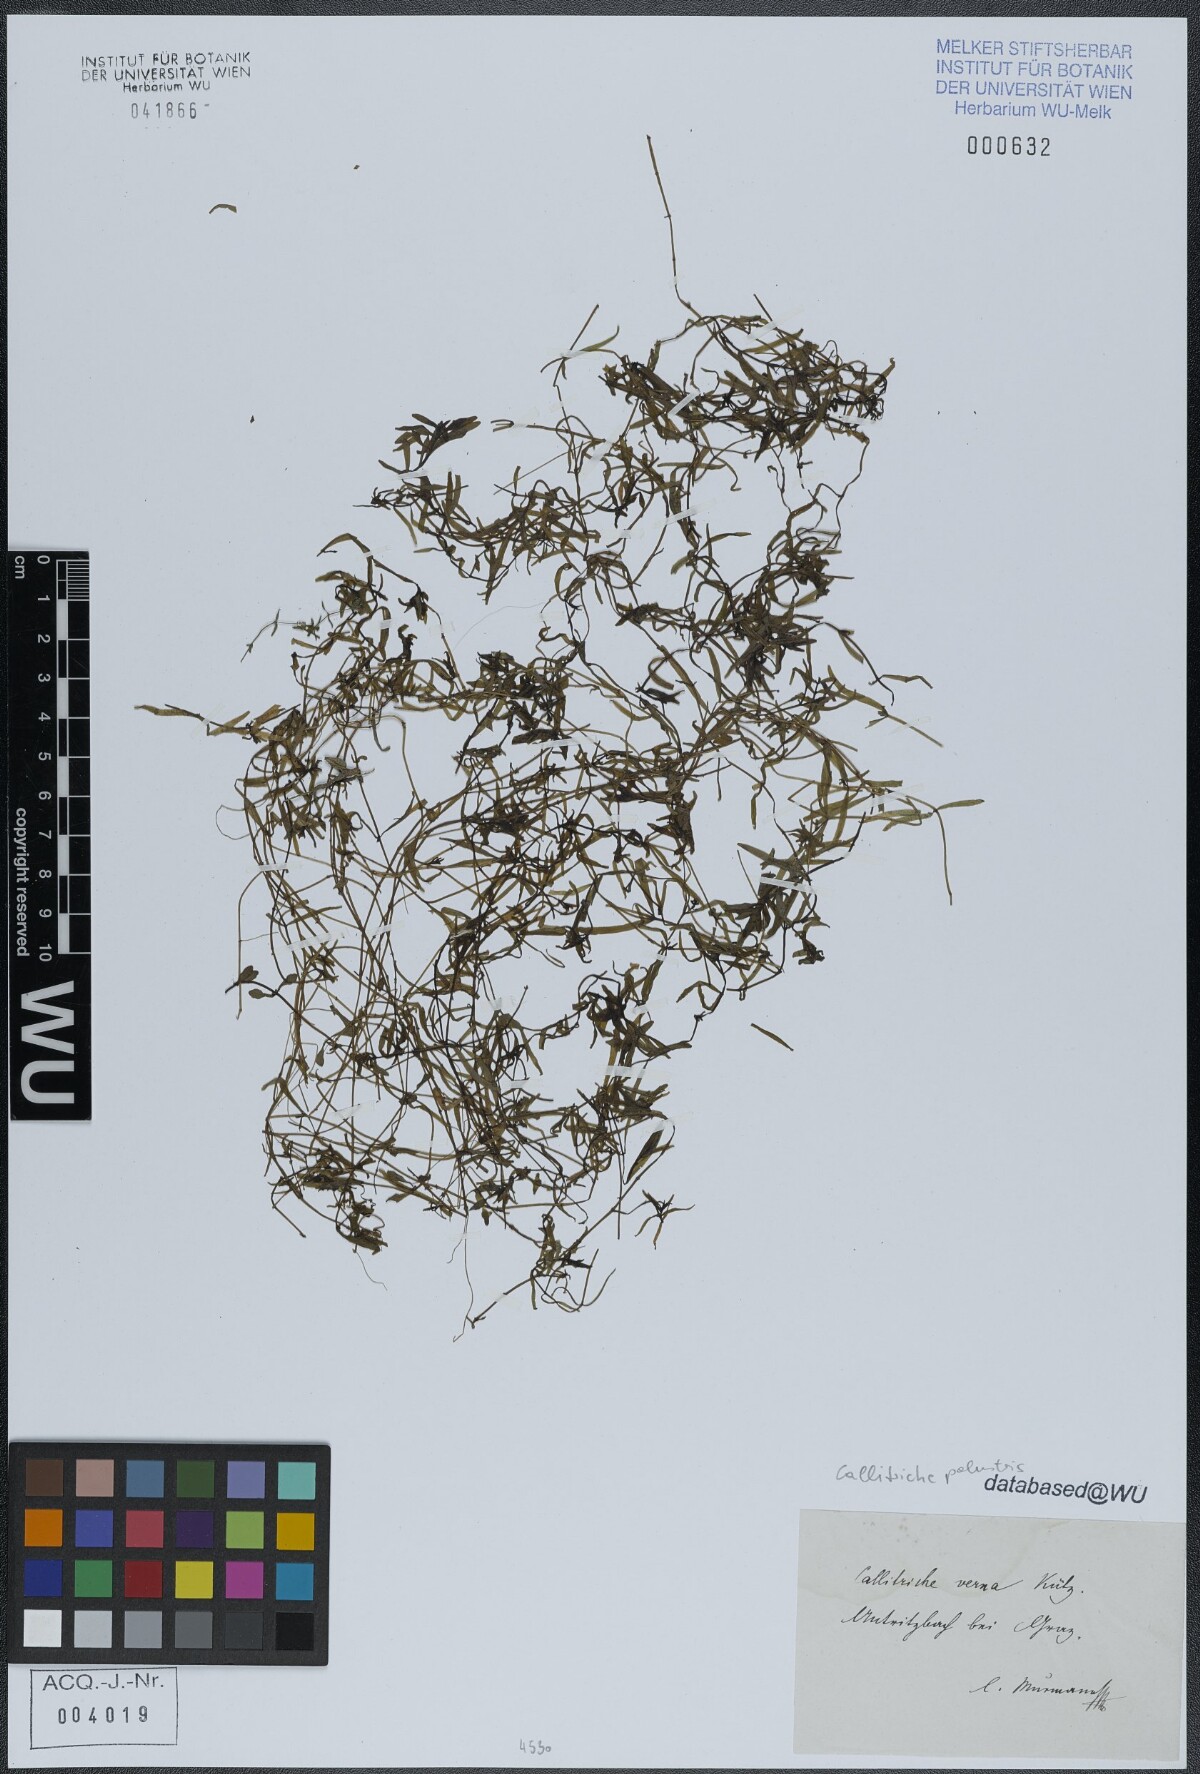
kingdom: Plantae
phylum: Tracheophyta
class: Magnoliopsida
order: Lamiales
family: Plantaginaceae
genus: Callitriche
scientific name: Callitriche palustris
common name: Spring water-starwort
